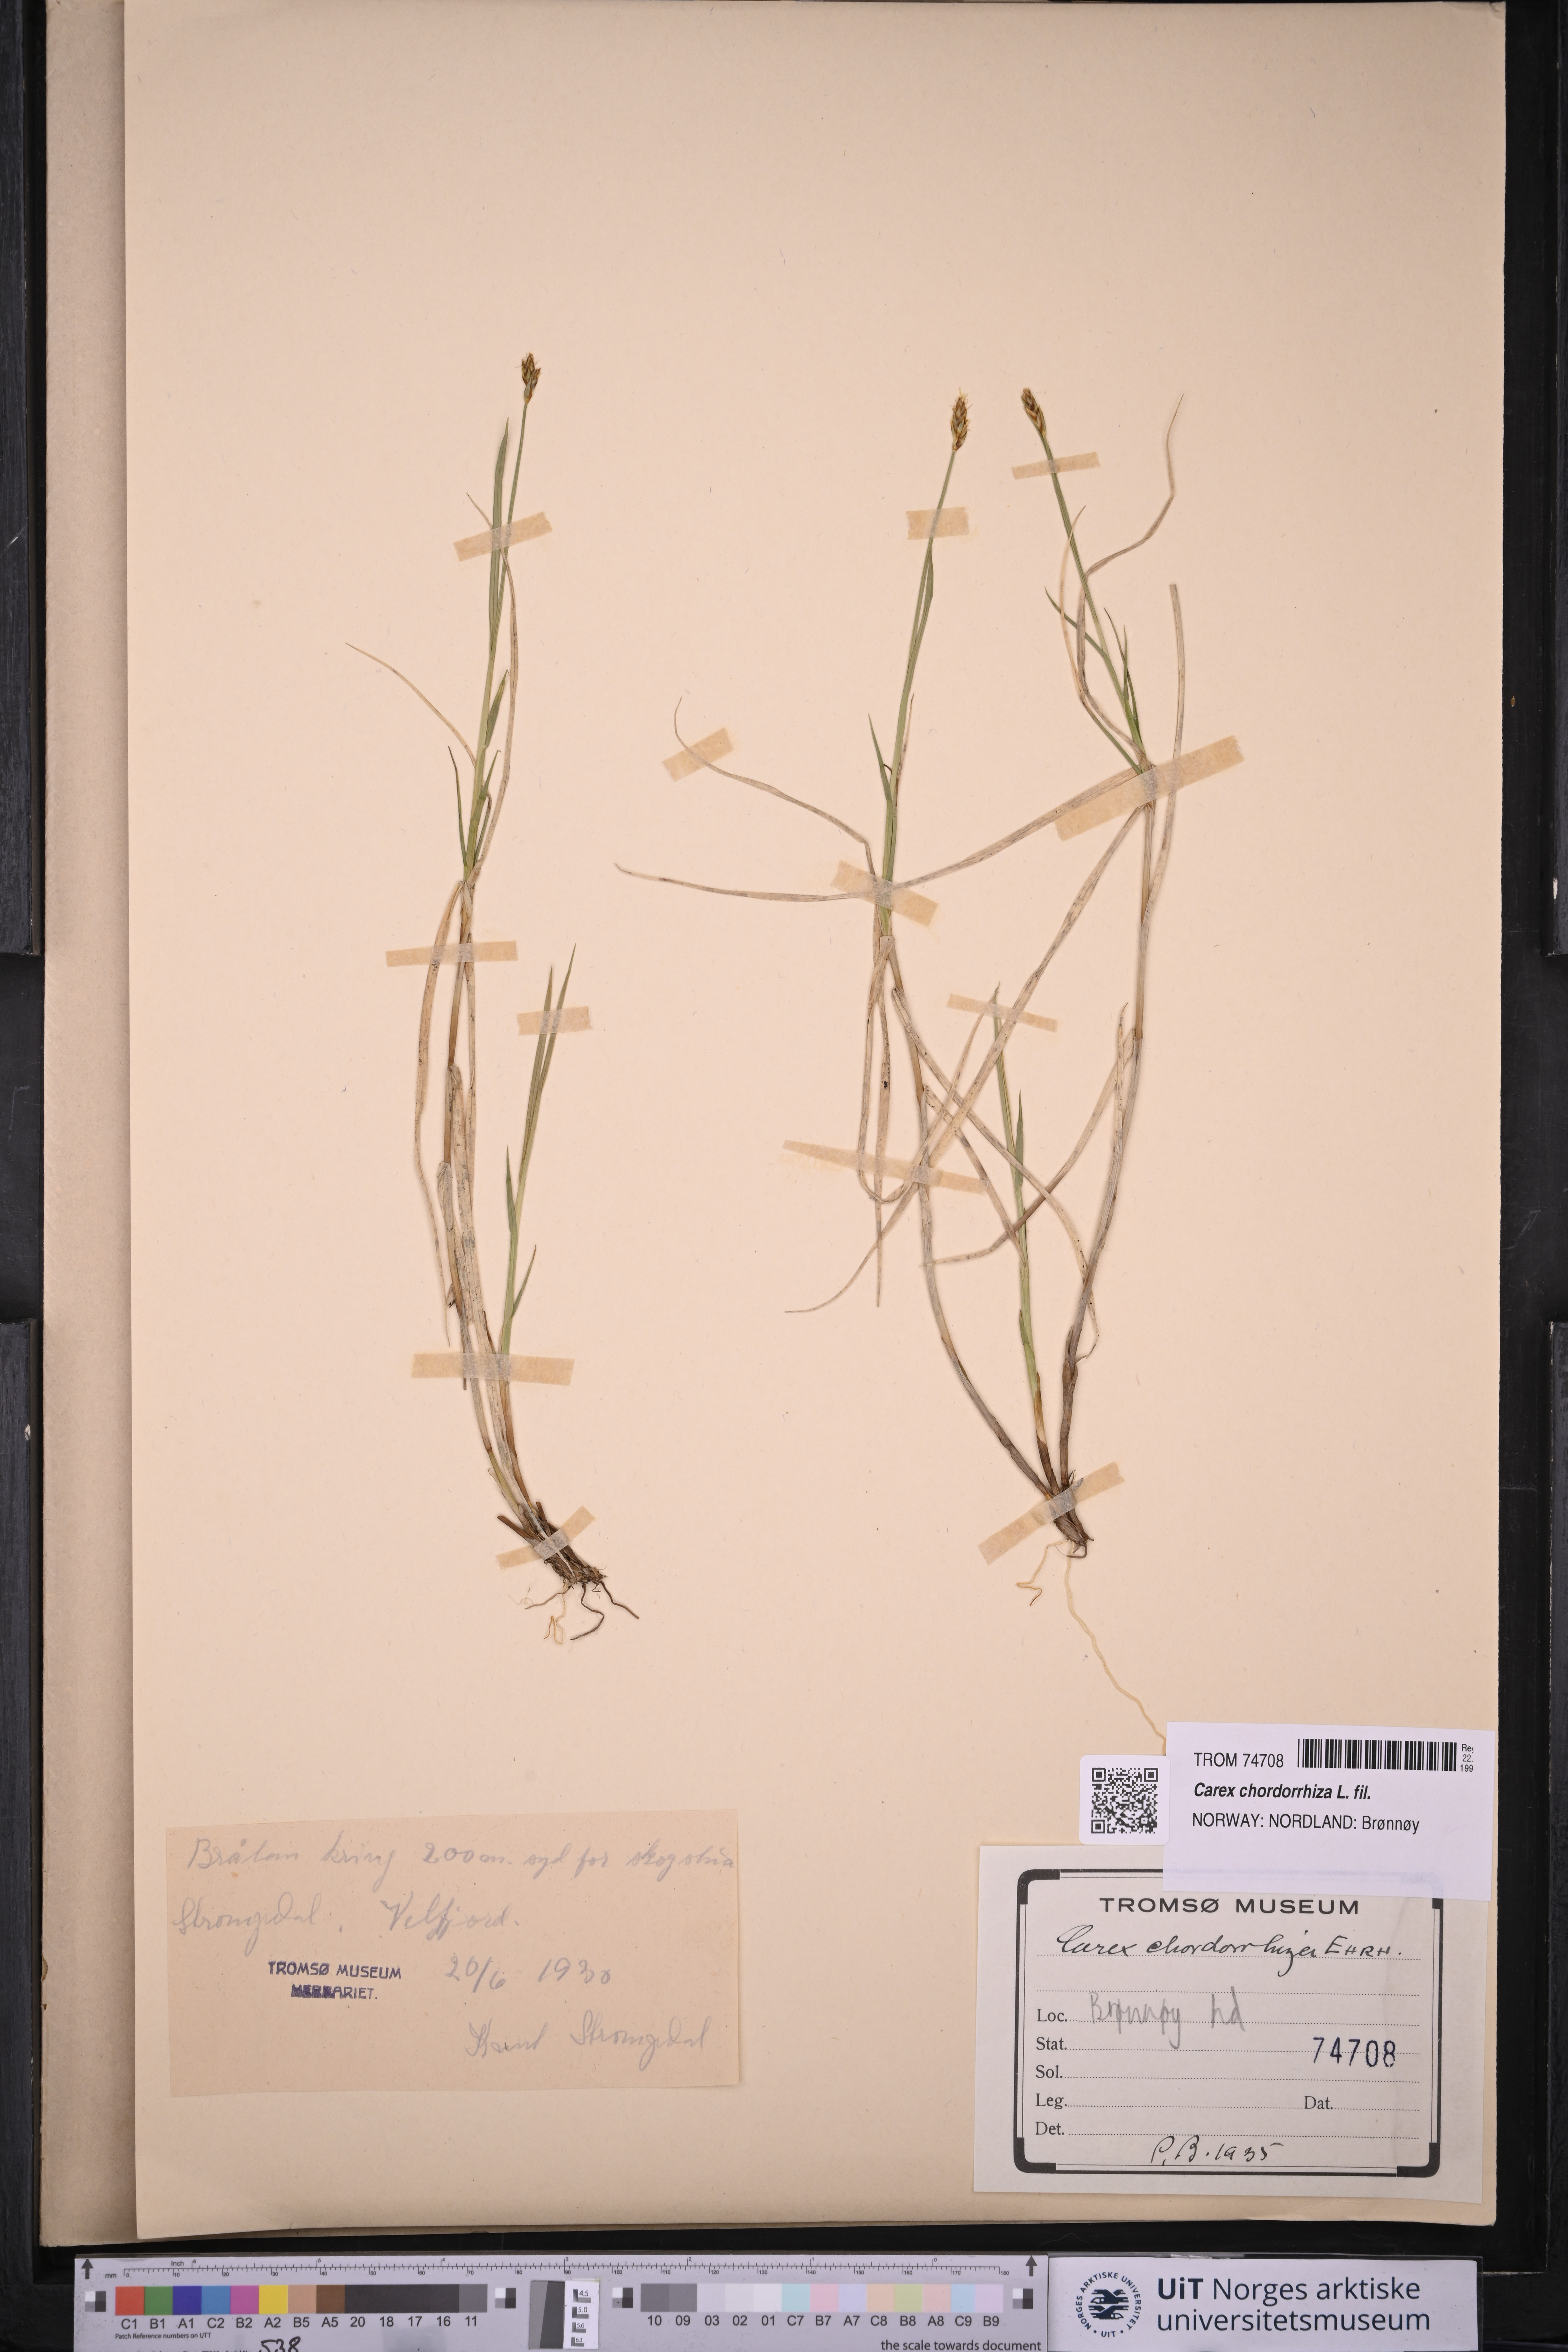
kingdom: Plantae
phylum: Tracheophyta
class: Liliopsida
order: Poales
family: Cyperaceae
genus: Carex
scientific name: Carex chordorrhiza
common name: String sedge
